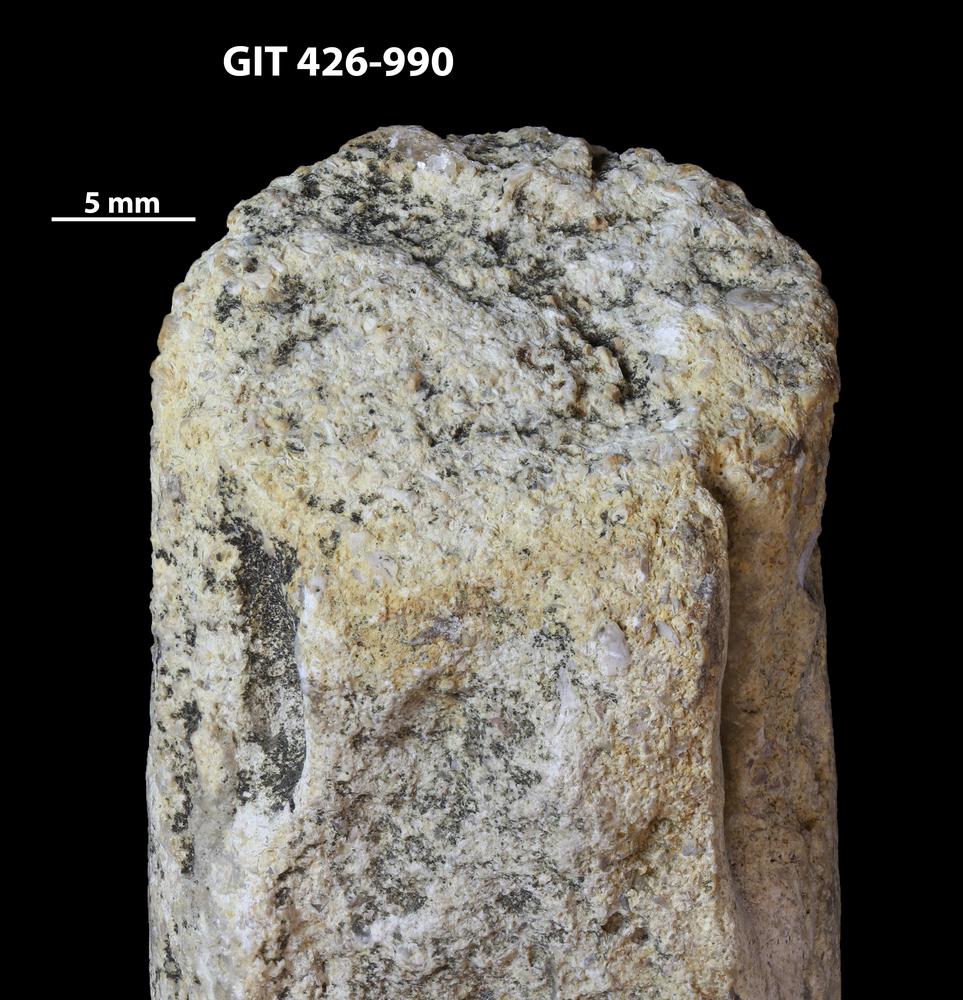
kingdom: Animalia
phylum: Mollusca
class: Cephalopoda
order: Orthocerida
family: Orthoceratidae
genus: Orthoceras
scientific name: Orthoceras
